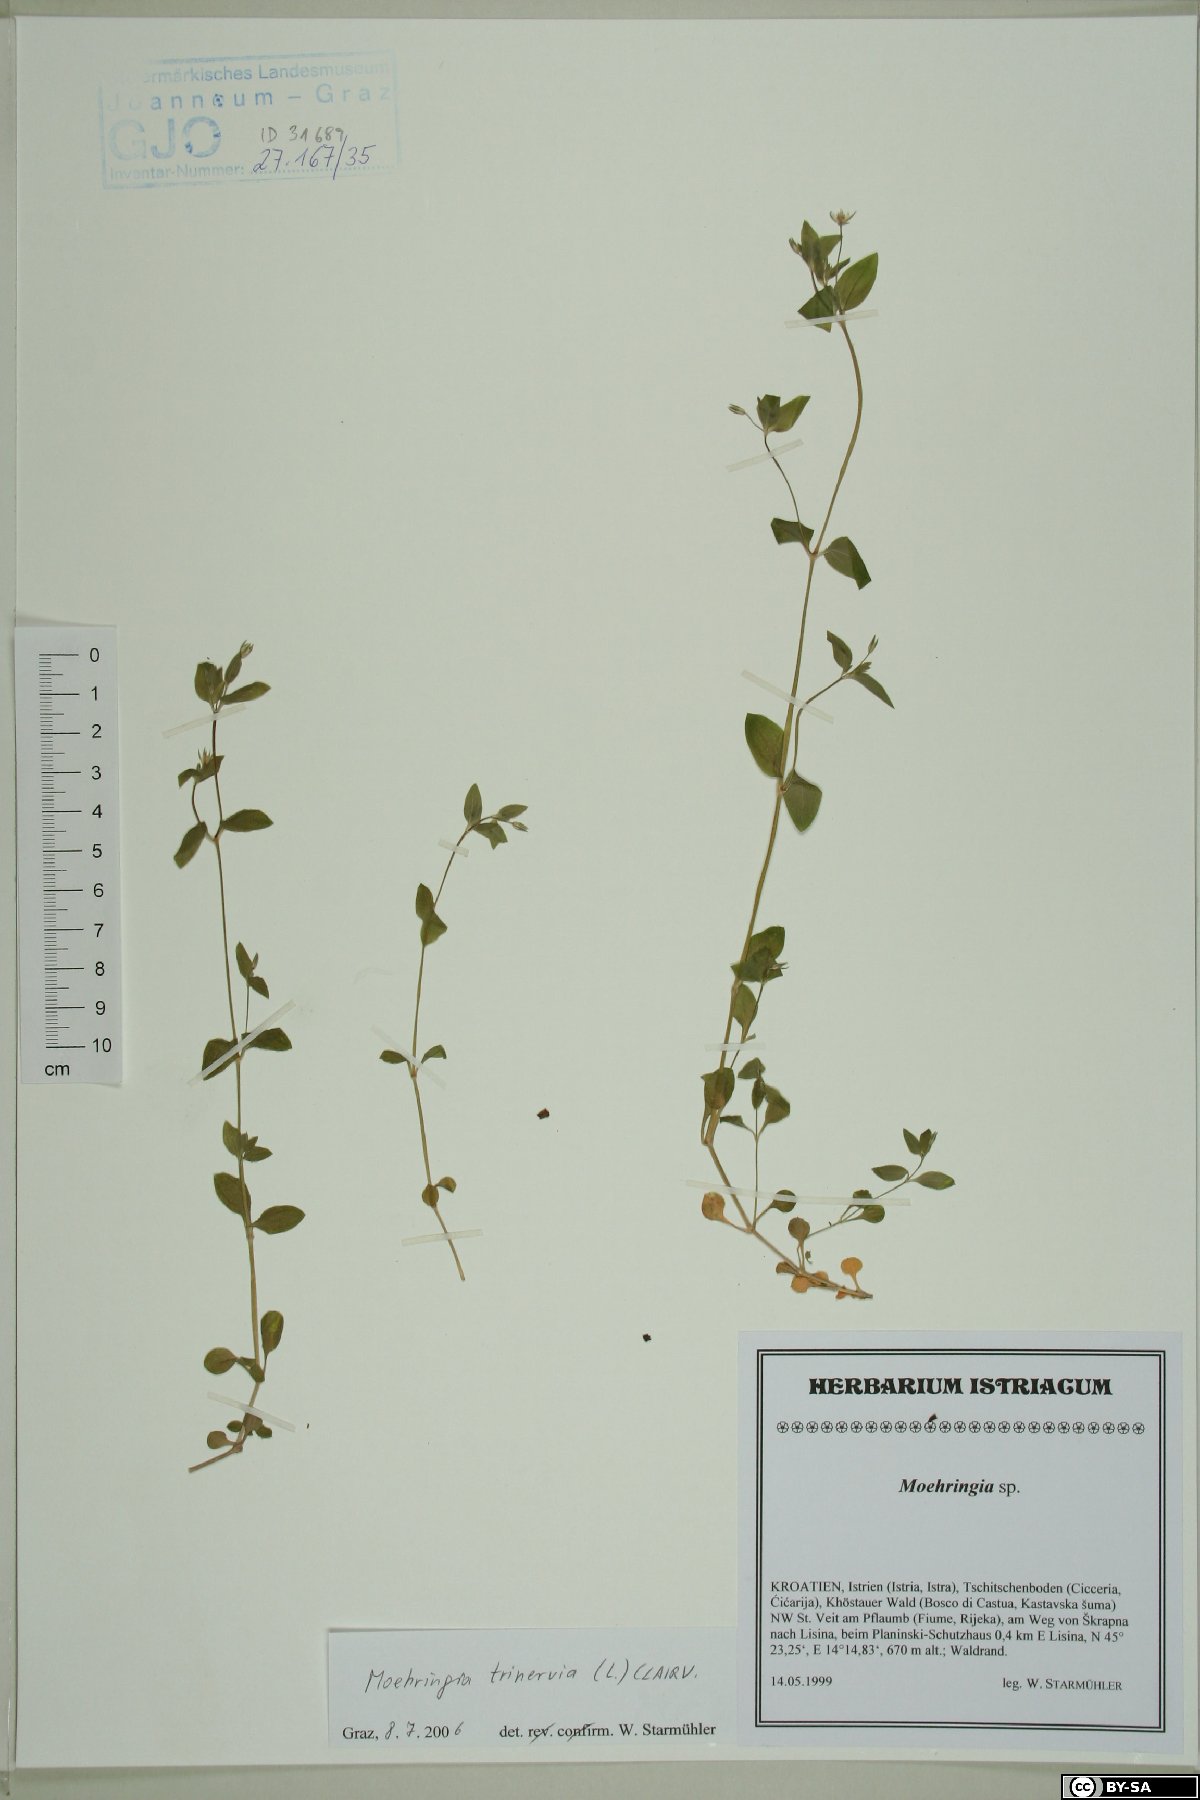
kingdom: Plantae
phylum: Tracheophyta
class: Magnoliopsida
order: Caryophyllales
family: Caryophyllaceae
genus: Moehringia
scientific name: Moehringia trinervia
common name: Three-nerved sandwort
